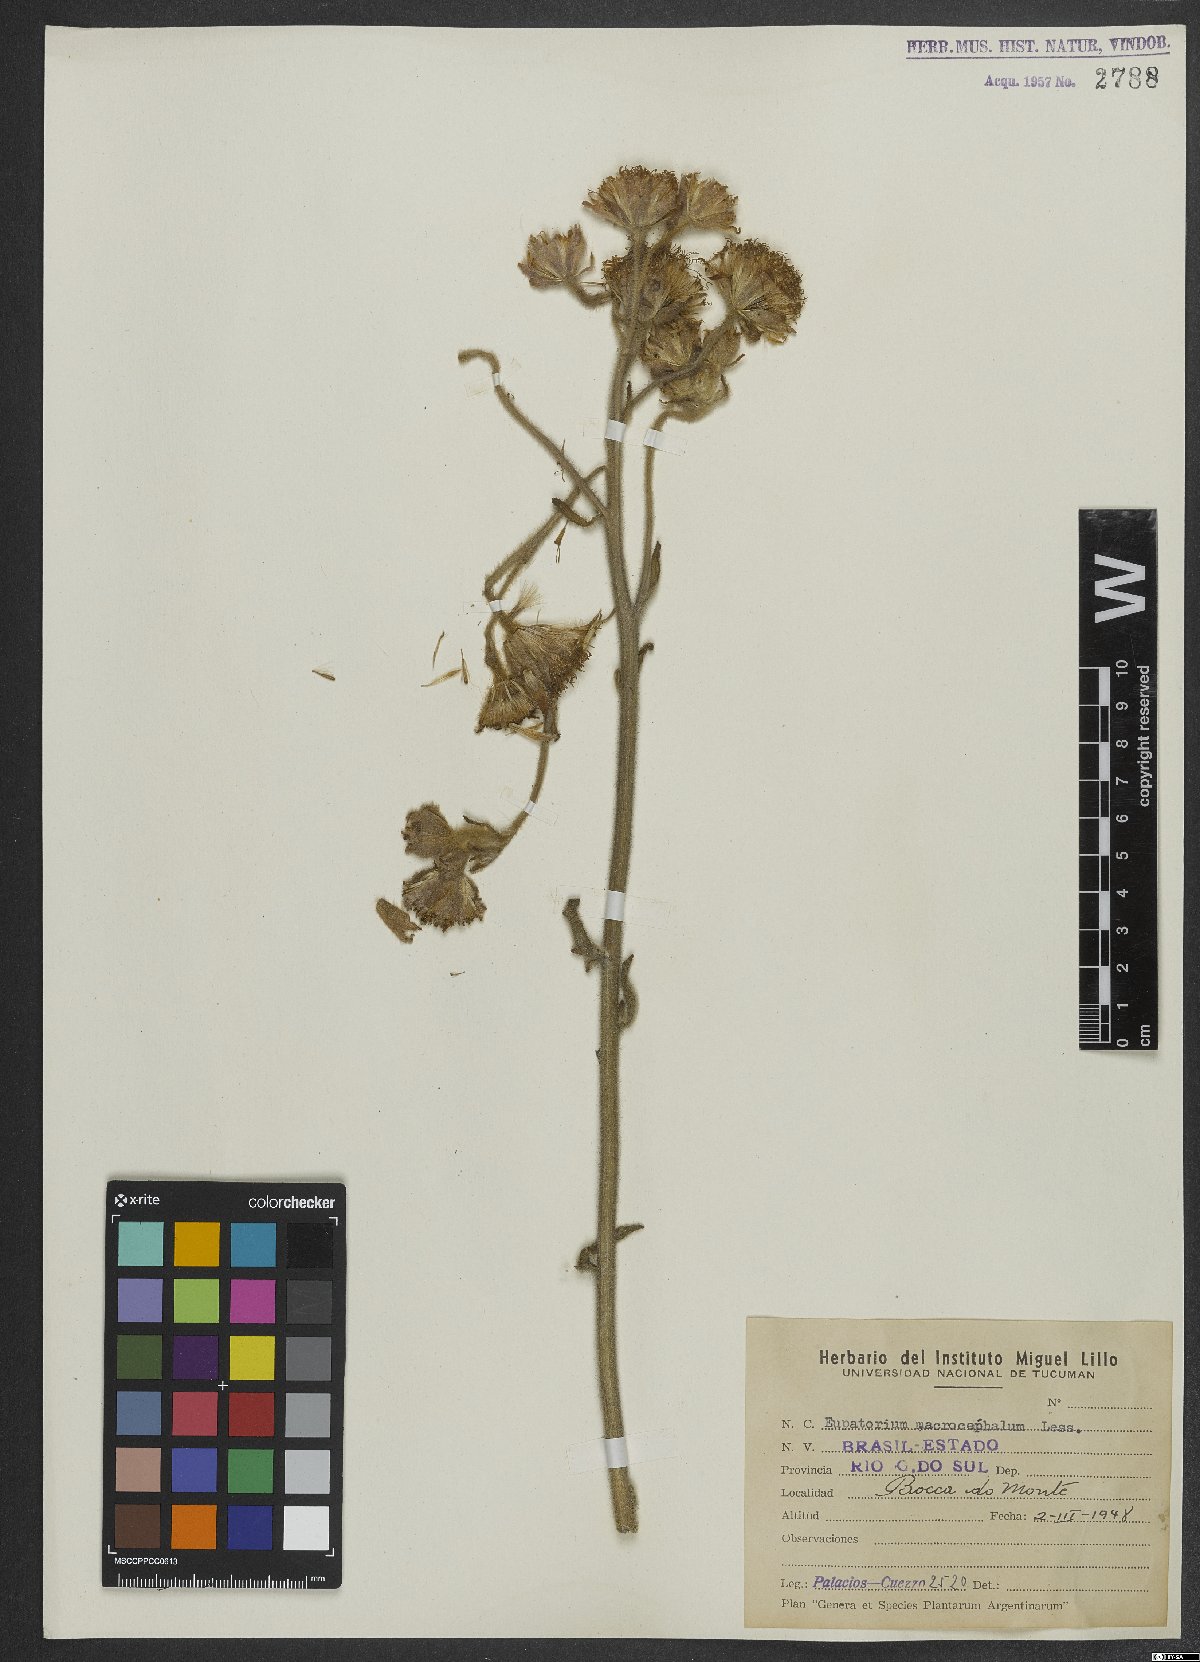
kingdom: Plantae
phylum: Tracheophyta
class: Magnoliopsida
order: Asterales
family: Asteraceae
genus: Campuloclinium
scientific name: Campuloclinium macrocephalum
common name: Pompomweed
